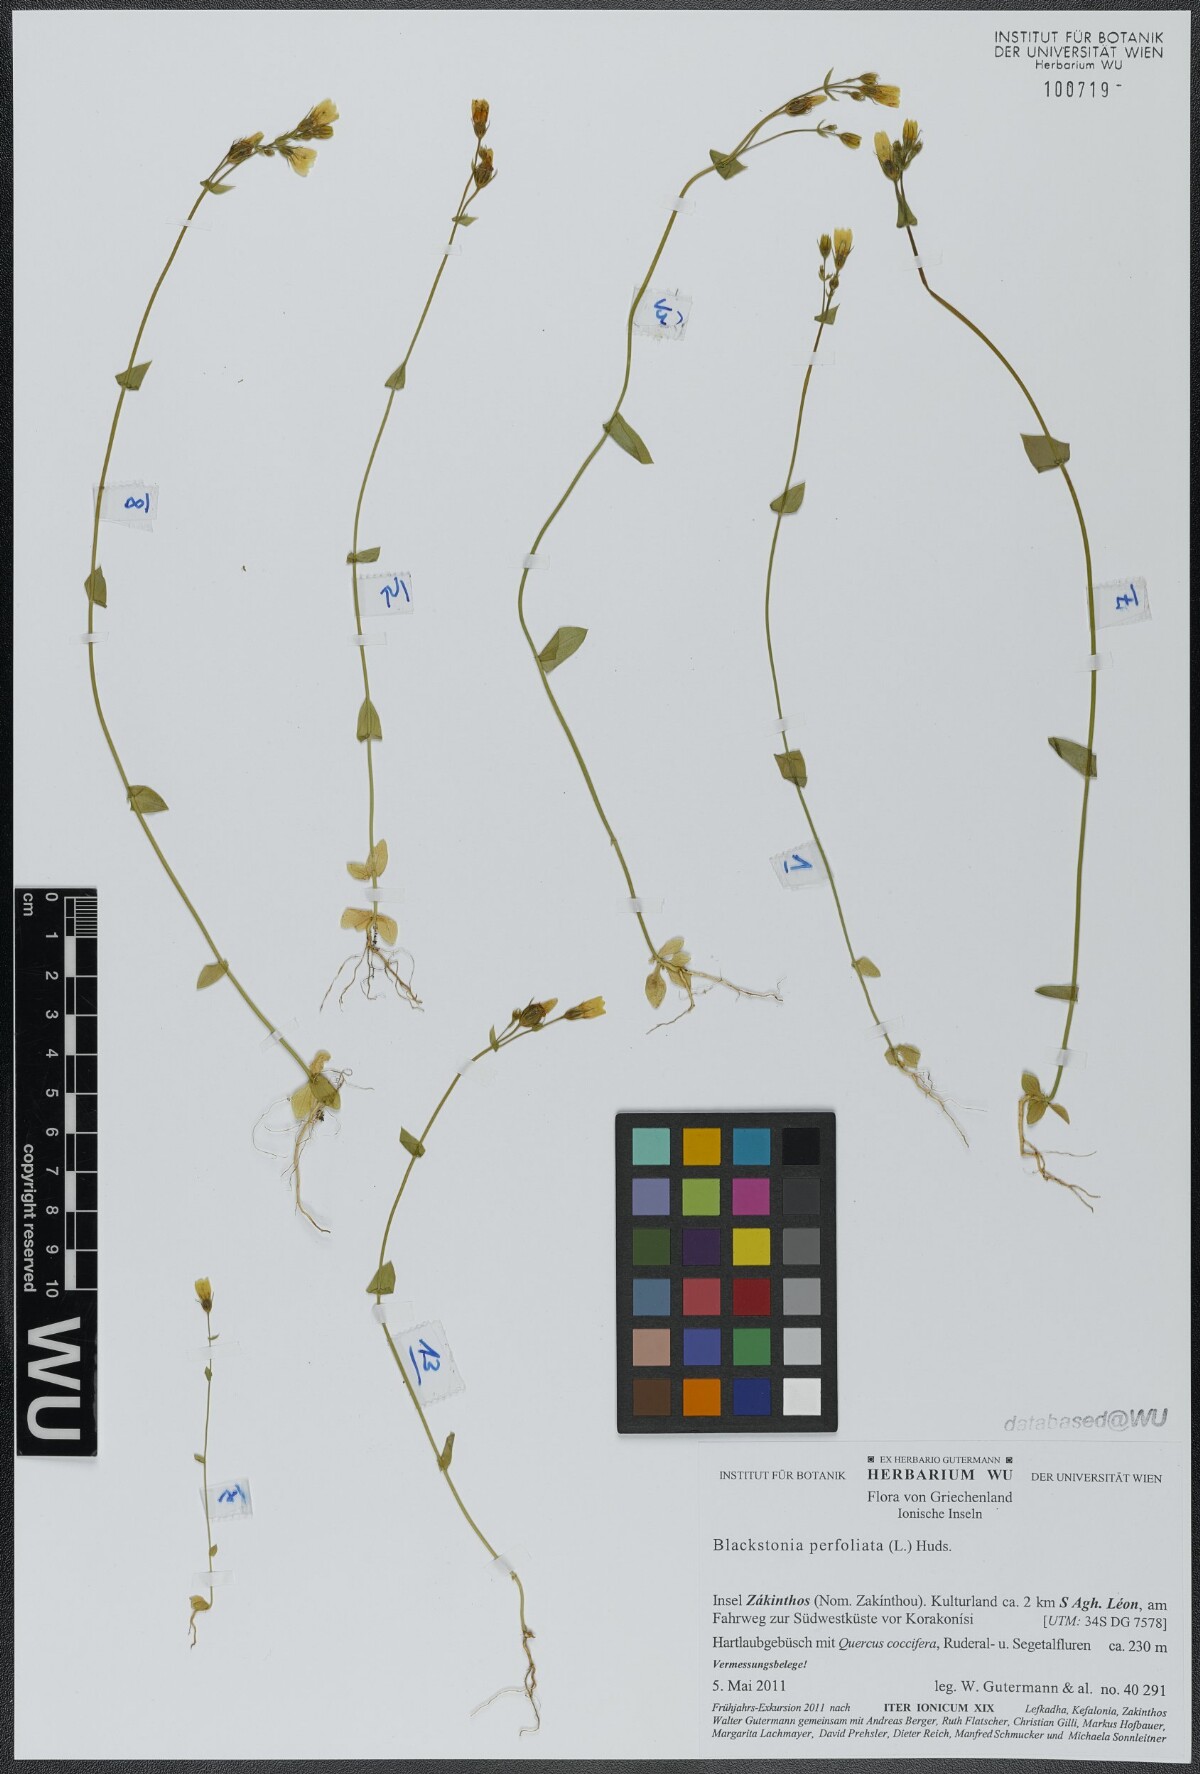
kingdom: Plantae
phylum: Tracheophyta
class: Magnoliopsida
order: Gentianales
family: Gentianaceae
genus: Blackstonia
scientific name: Blackstonia perfoliata
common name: Yellow-wort
